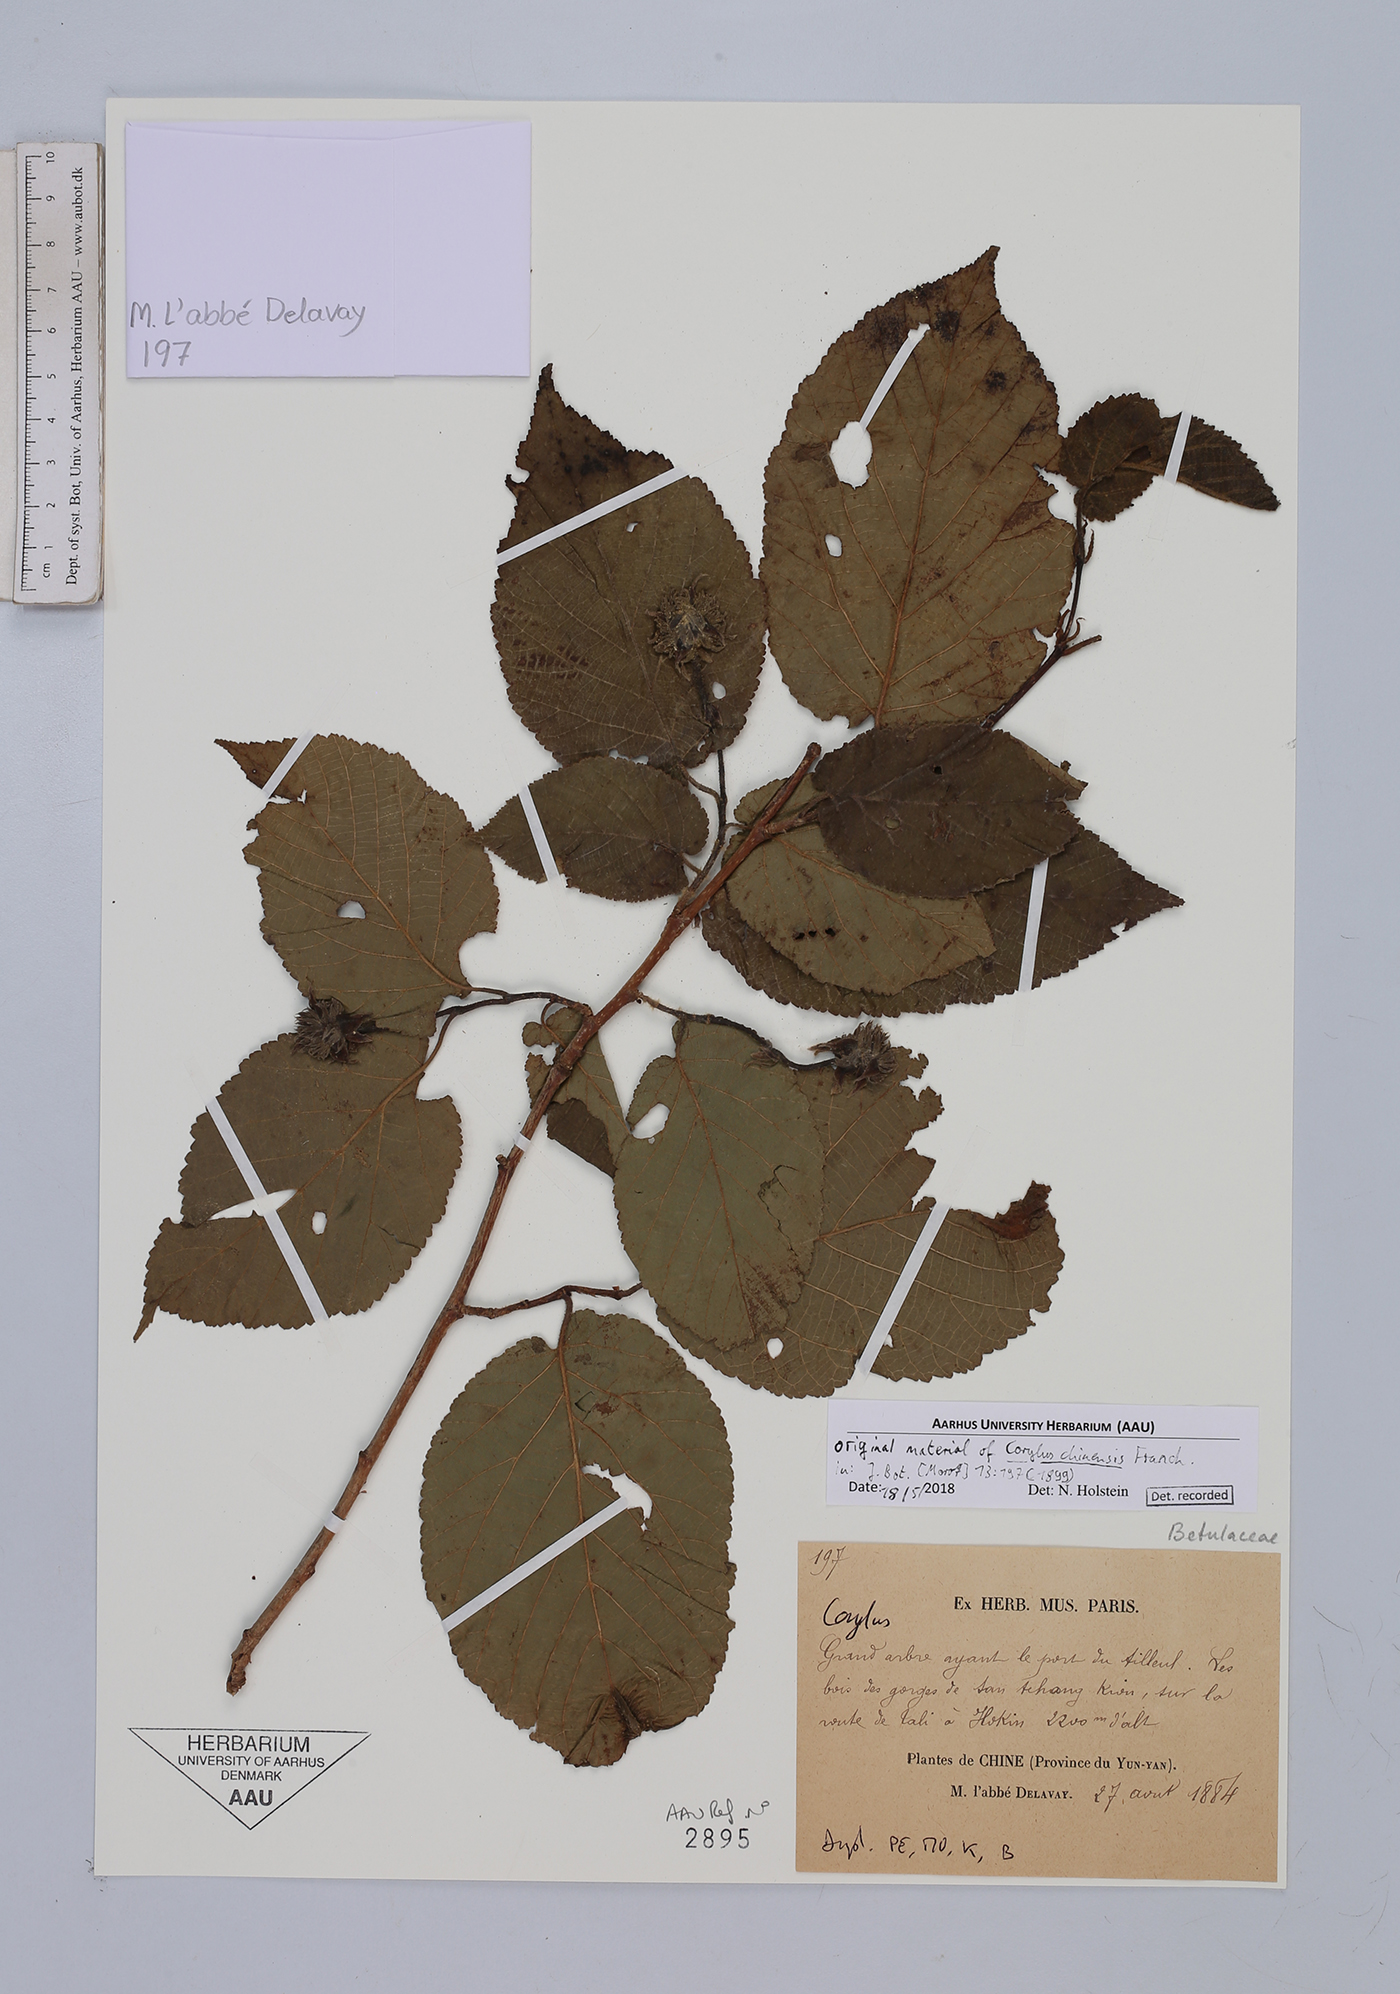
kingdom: Plantae
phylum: Tracheophyta
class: Magnoliopsida
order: Fagales
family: Betulaceae
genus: Corylus
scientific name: Corylus chinensis
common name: Chinese hazlenut
